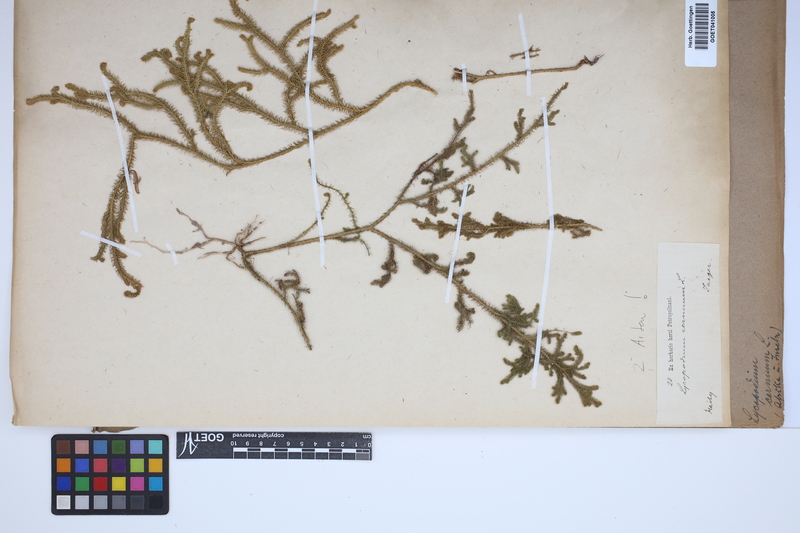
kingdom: Plantae
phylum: Tracheophyta
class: Lycopodiopsida
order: Lycopodiales
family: Lycopodiaceae
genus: Palhinhaea
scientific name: Palhinhaea cernua
